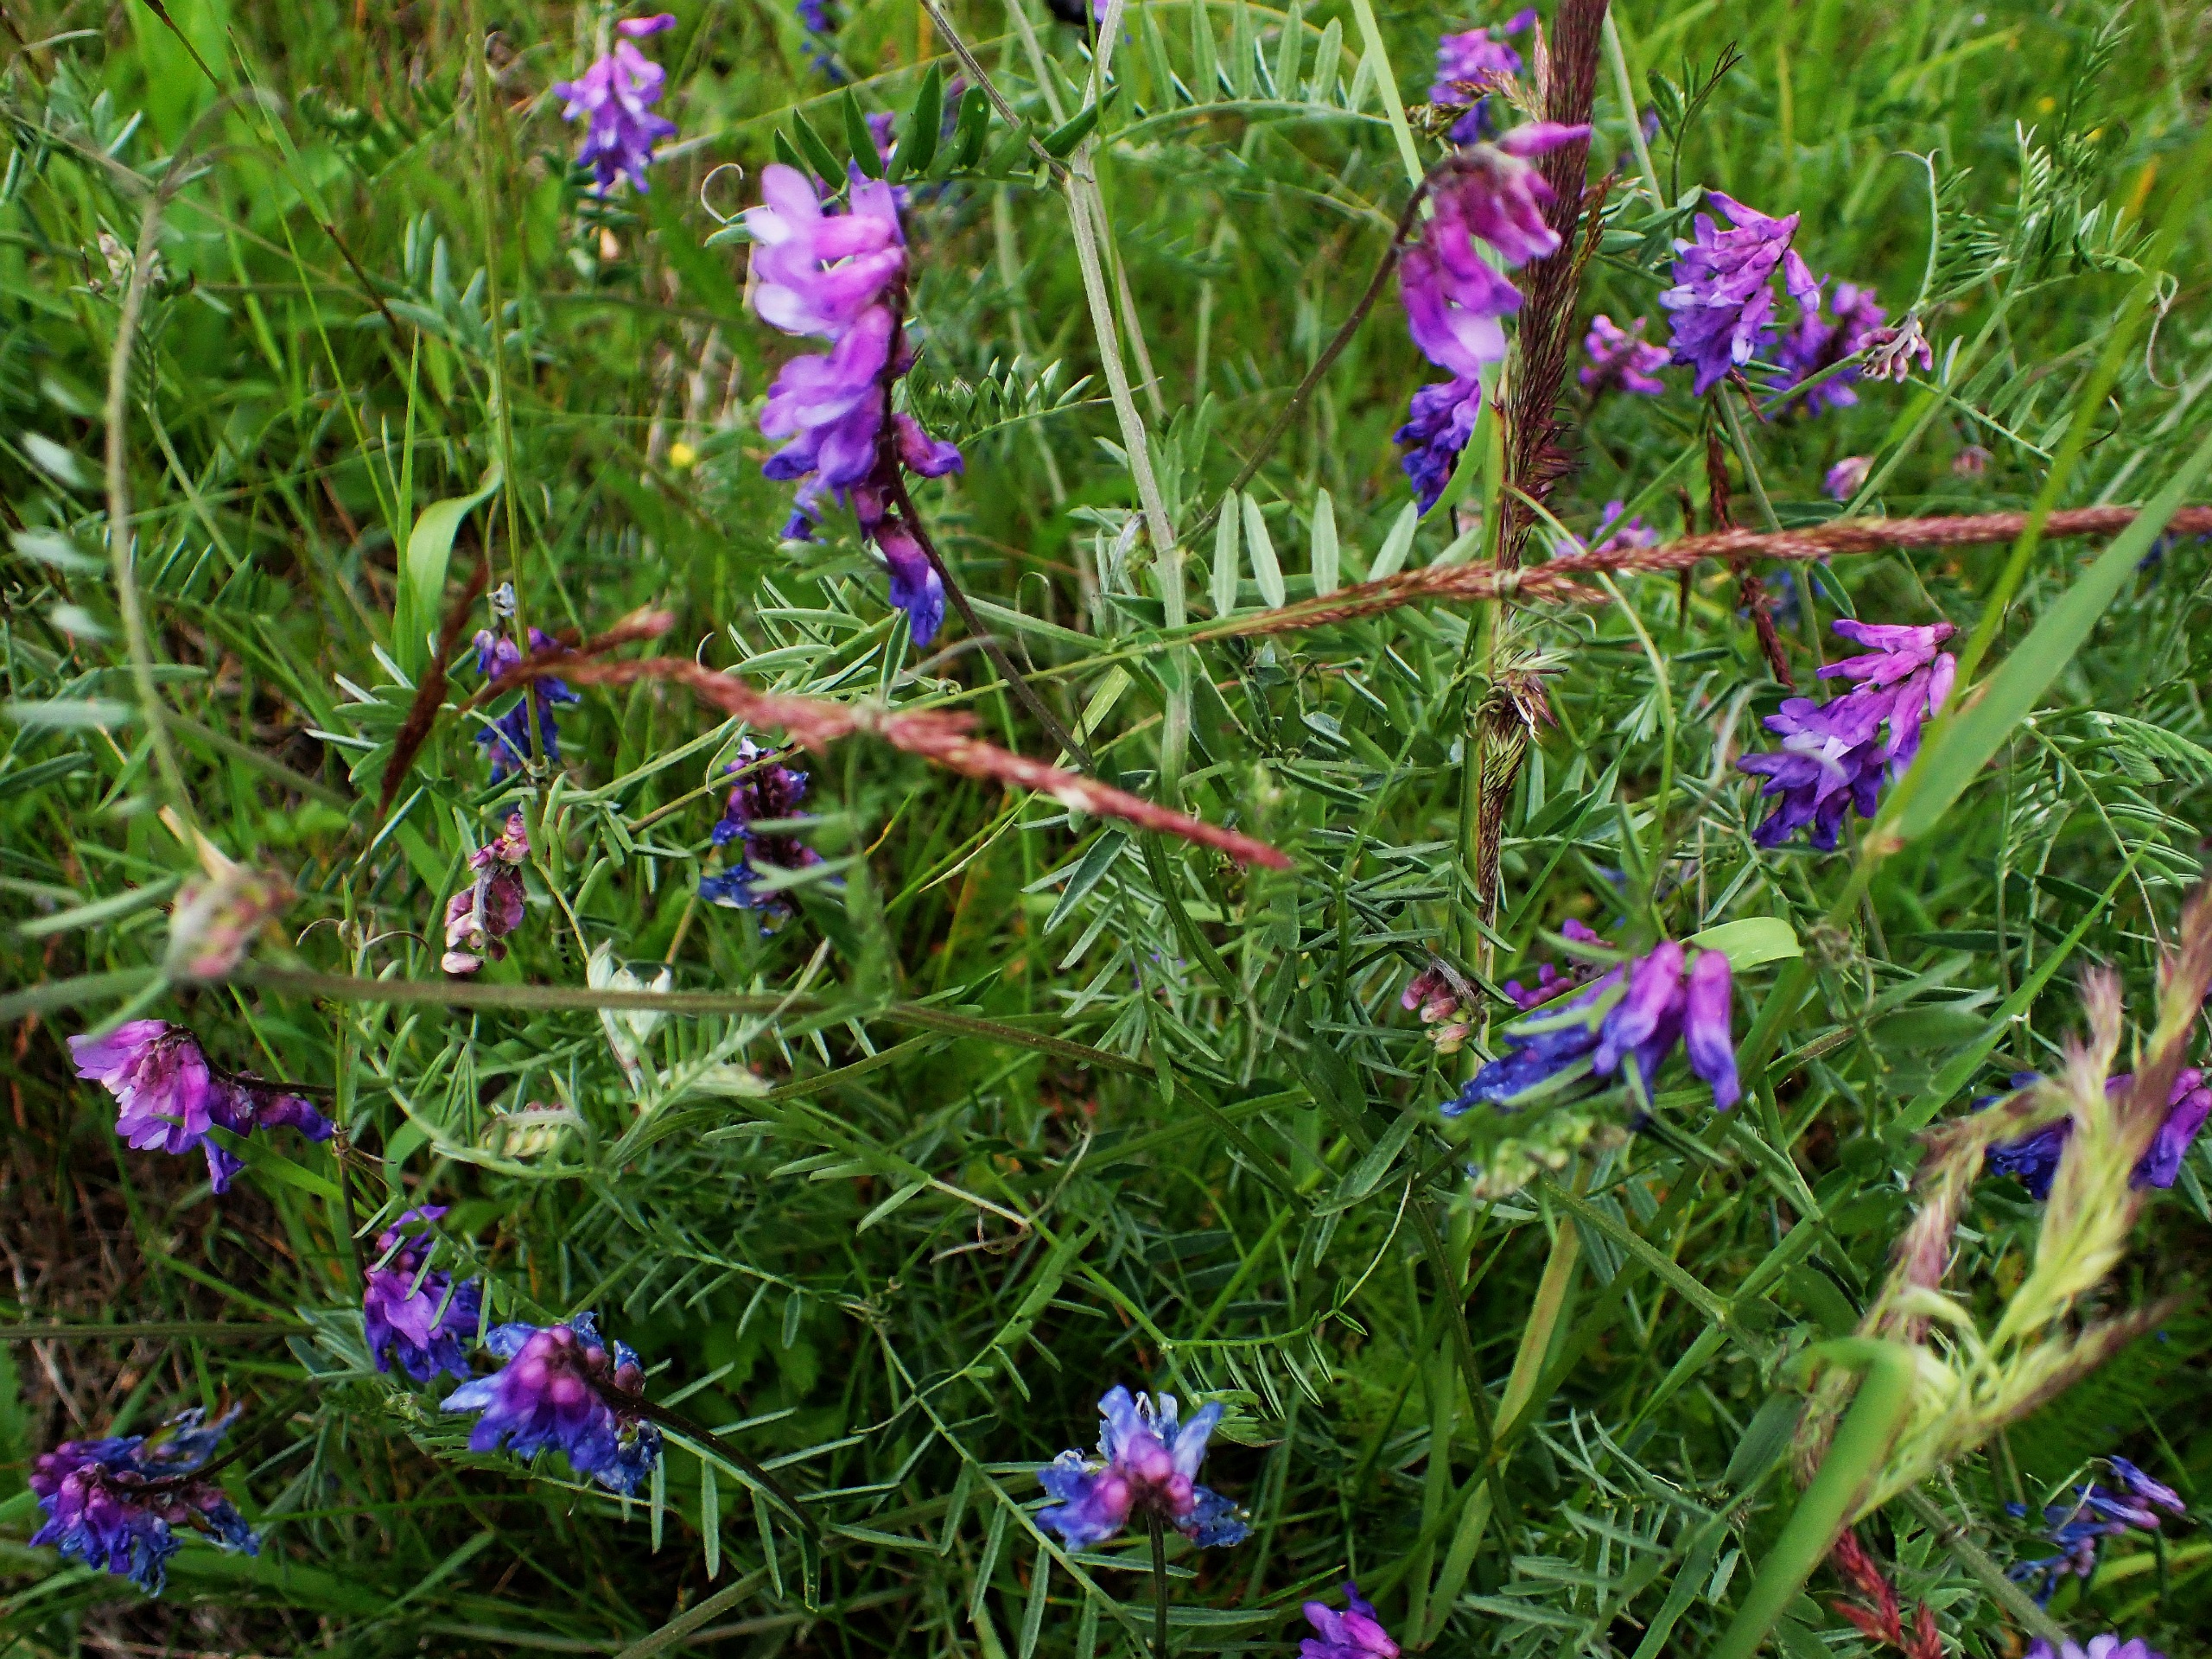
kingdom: Plantae
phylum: Tracheophyta
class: Magnoliopsida
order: Fabales
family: Fabaceae
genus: Vicia
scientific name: Vicia cracca
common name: Muse-vikke
